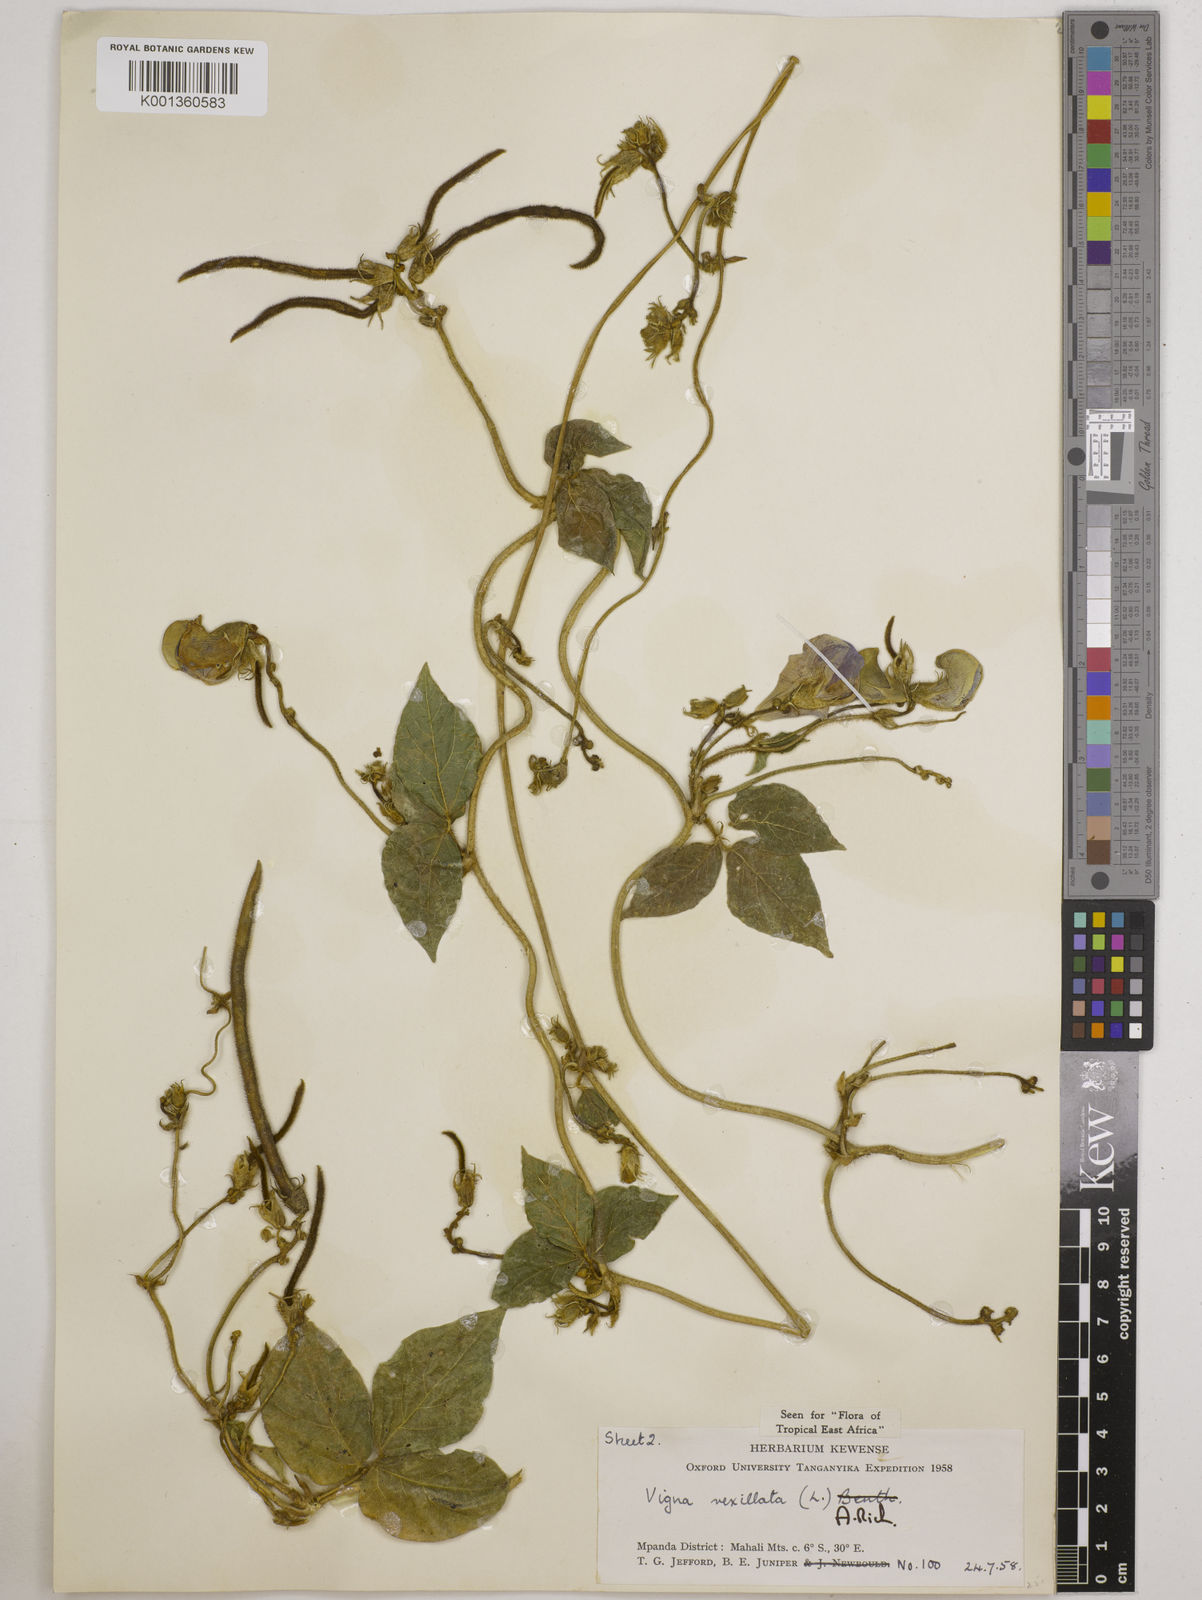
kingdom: Plantae
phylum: Tracheophyta
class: Magnoliopsida
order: Fabales
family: Fabaceae
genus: Vigna
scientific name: Vigna vexillata
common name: Zombi pea
